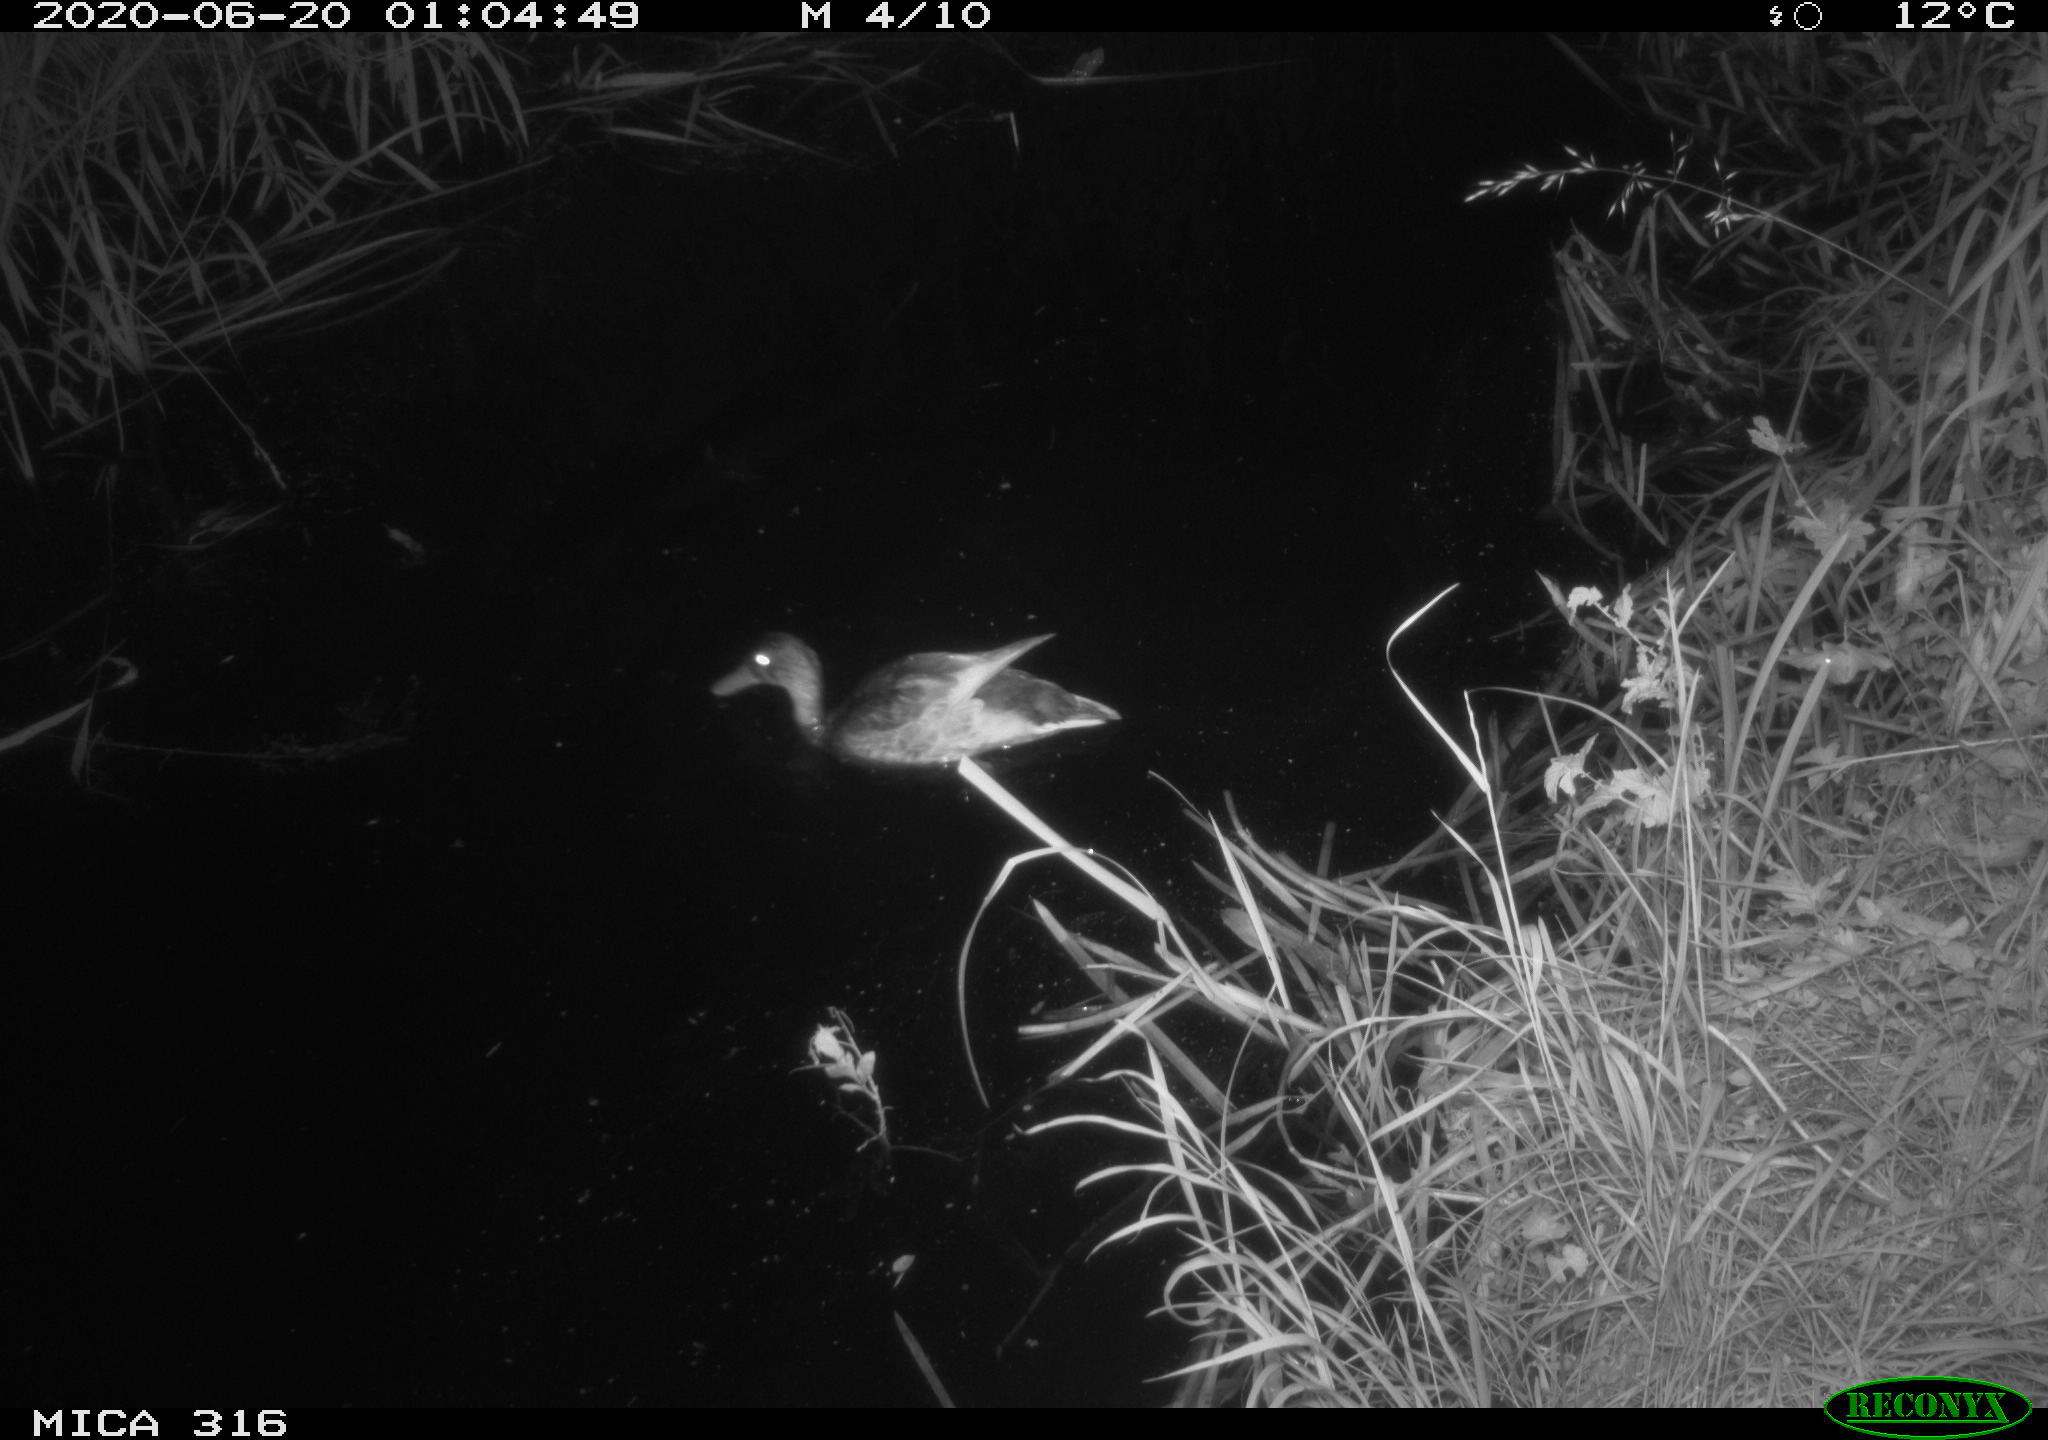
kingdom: Animalia
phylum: Chordata
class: Aves
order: Anseriformes
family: Anatidae
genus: Anas
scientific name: Anas platyrhynchos
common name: Mallard
